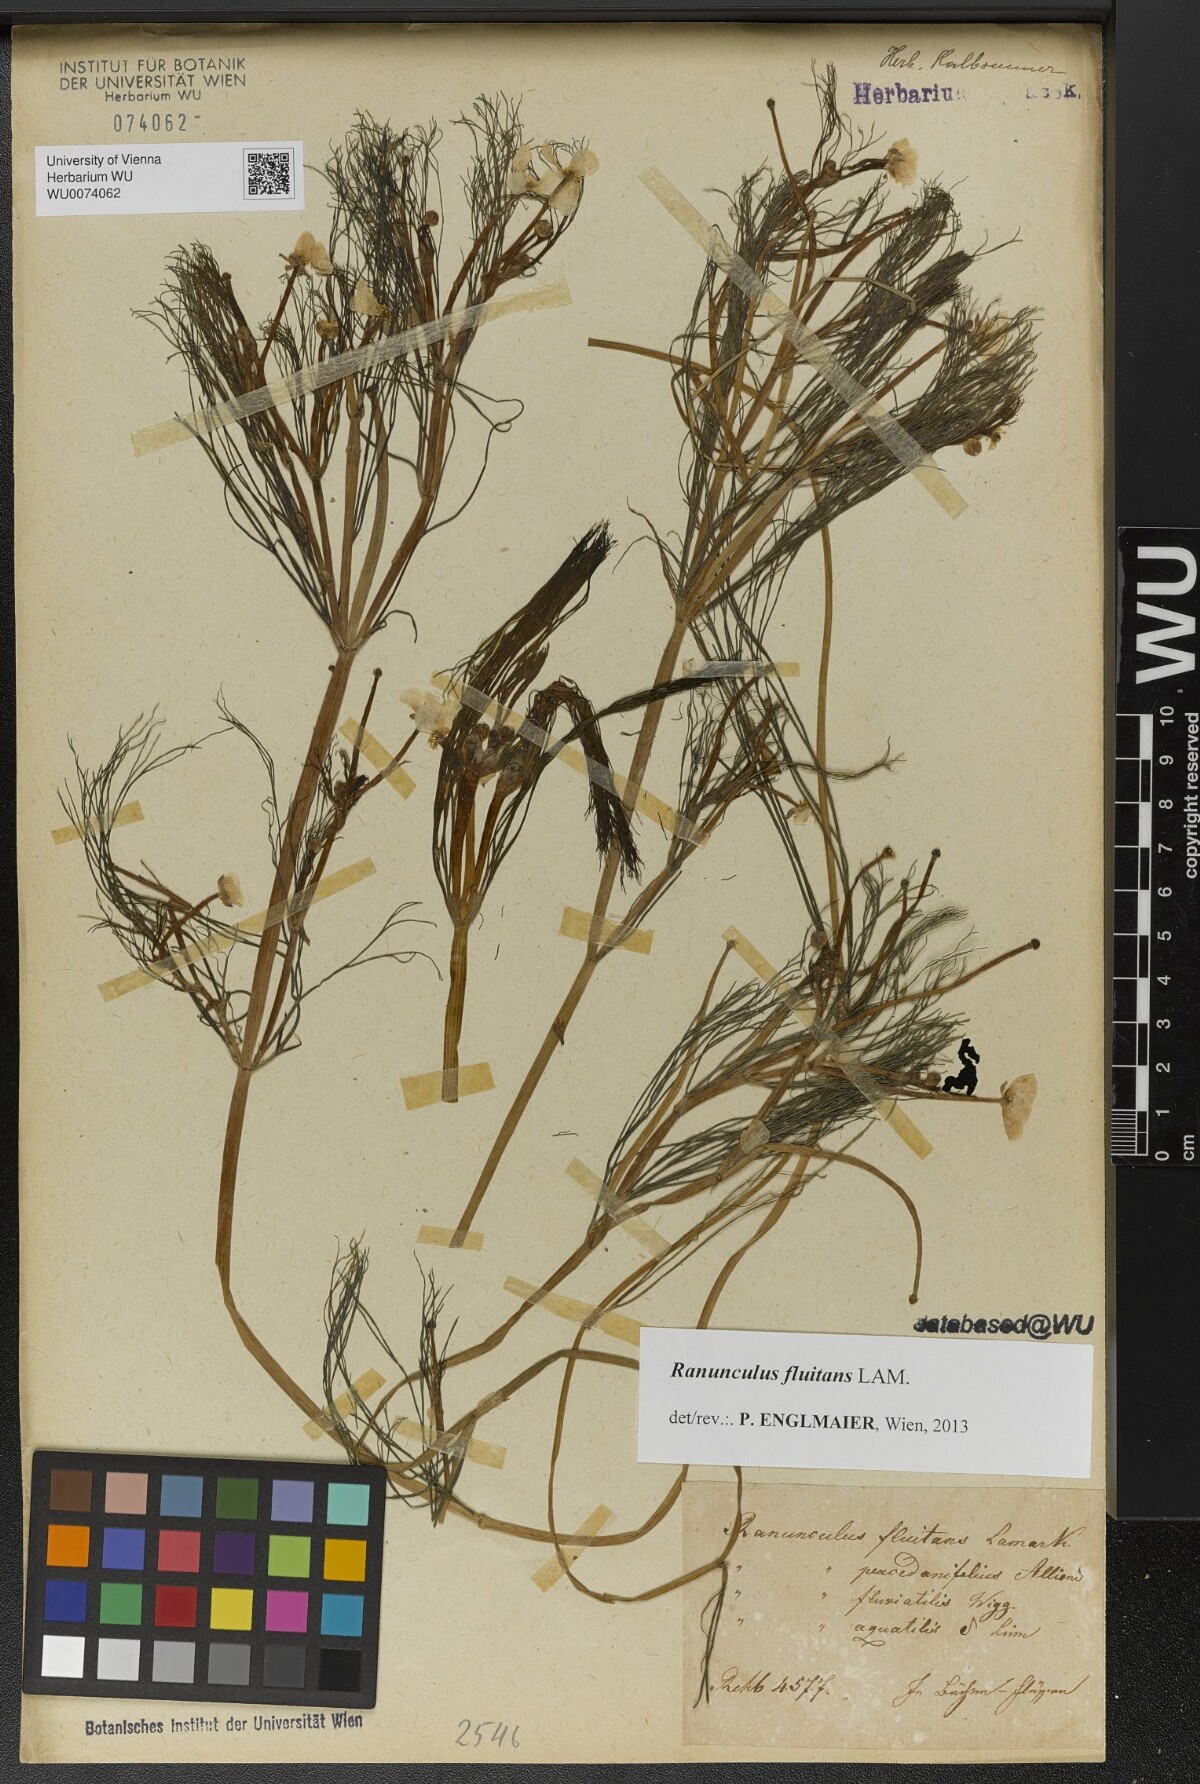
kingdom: Plantae
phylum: Tracheophyta
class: Magnoliopsida
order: Ranunculales
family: Ranunculaceae
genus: Ranunculus
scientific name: Ranunculus fluitans
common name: River water-crowfoot
